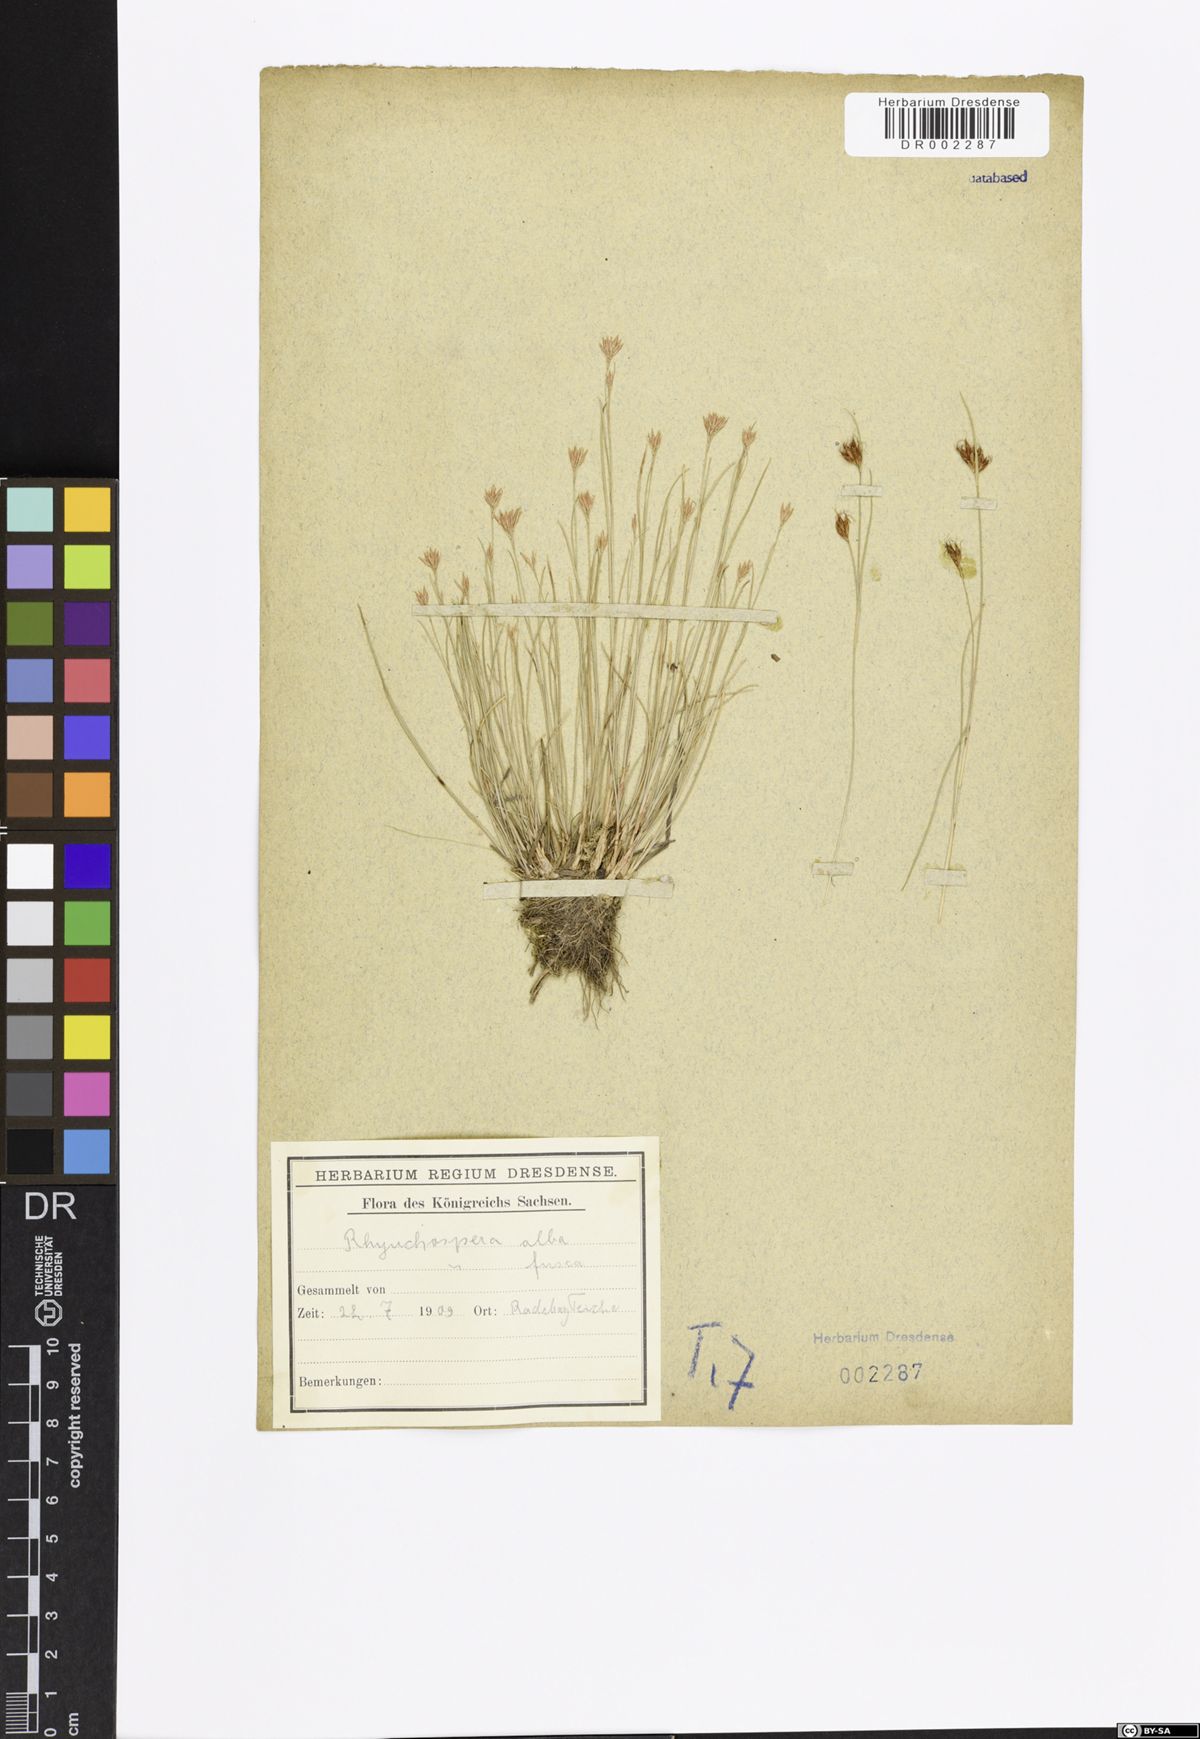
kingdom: Plantae
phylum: Tracheophyta
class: Liliopsida
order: Poales
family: Cyperaceae
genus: Rhynchospora
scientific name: Rhynchospora alba
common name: White beak-sedge
